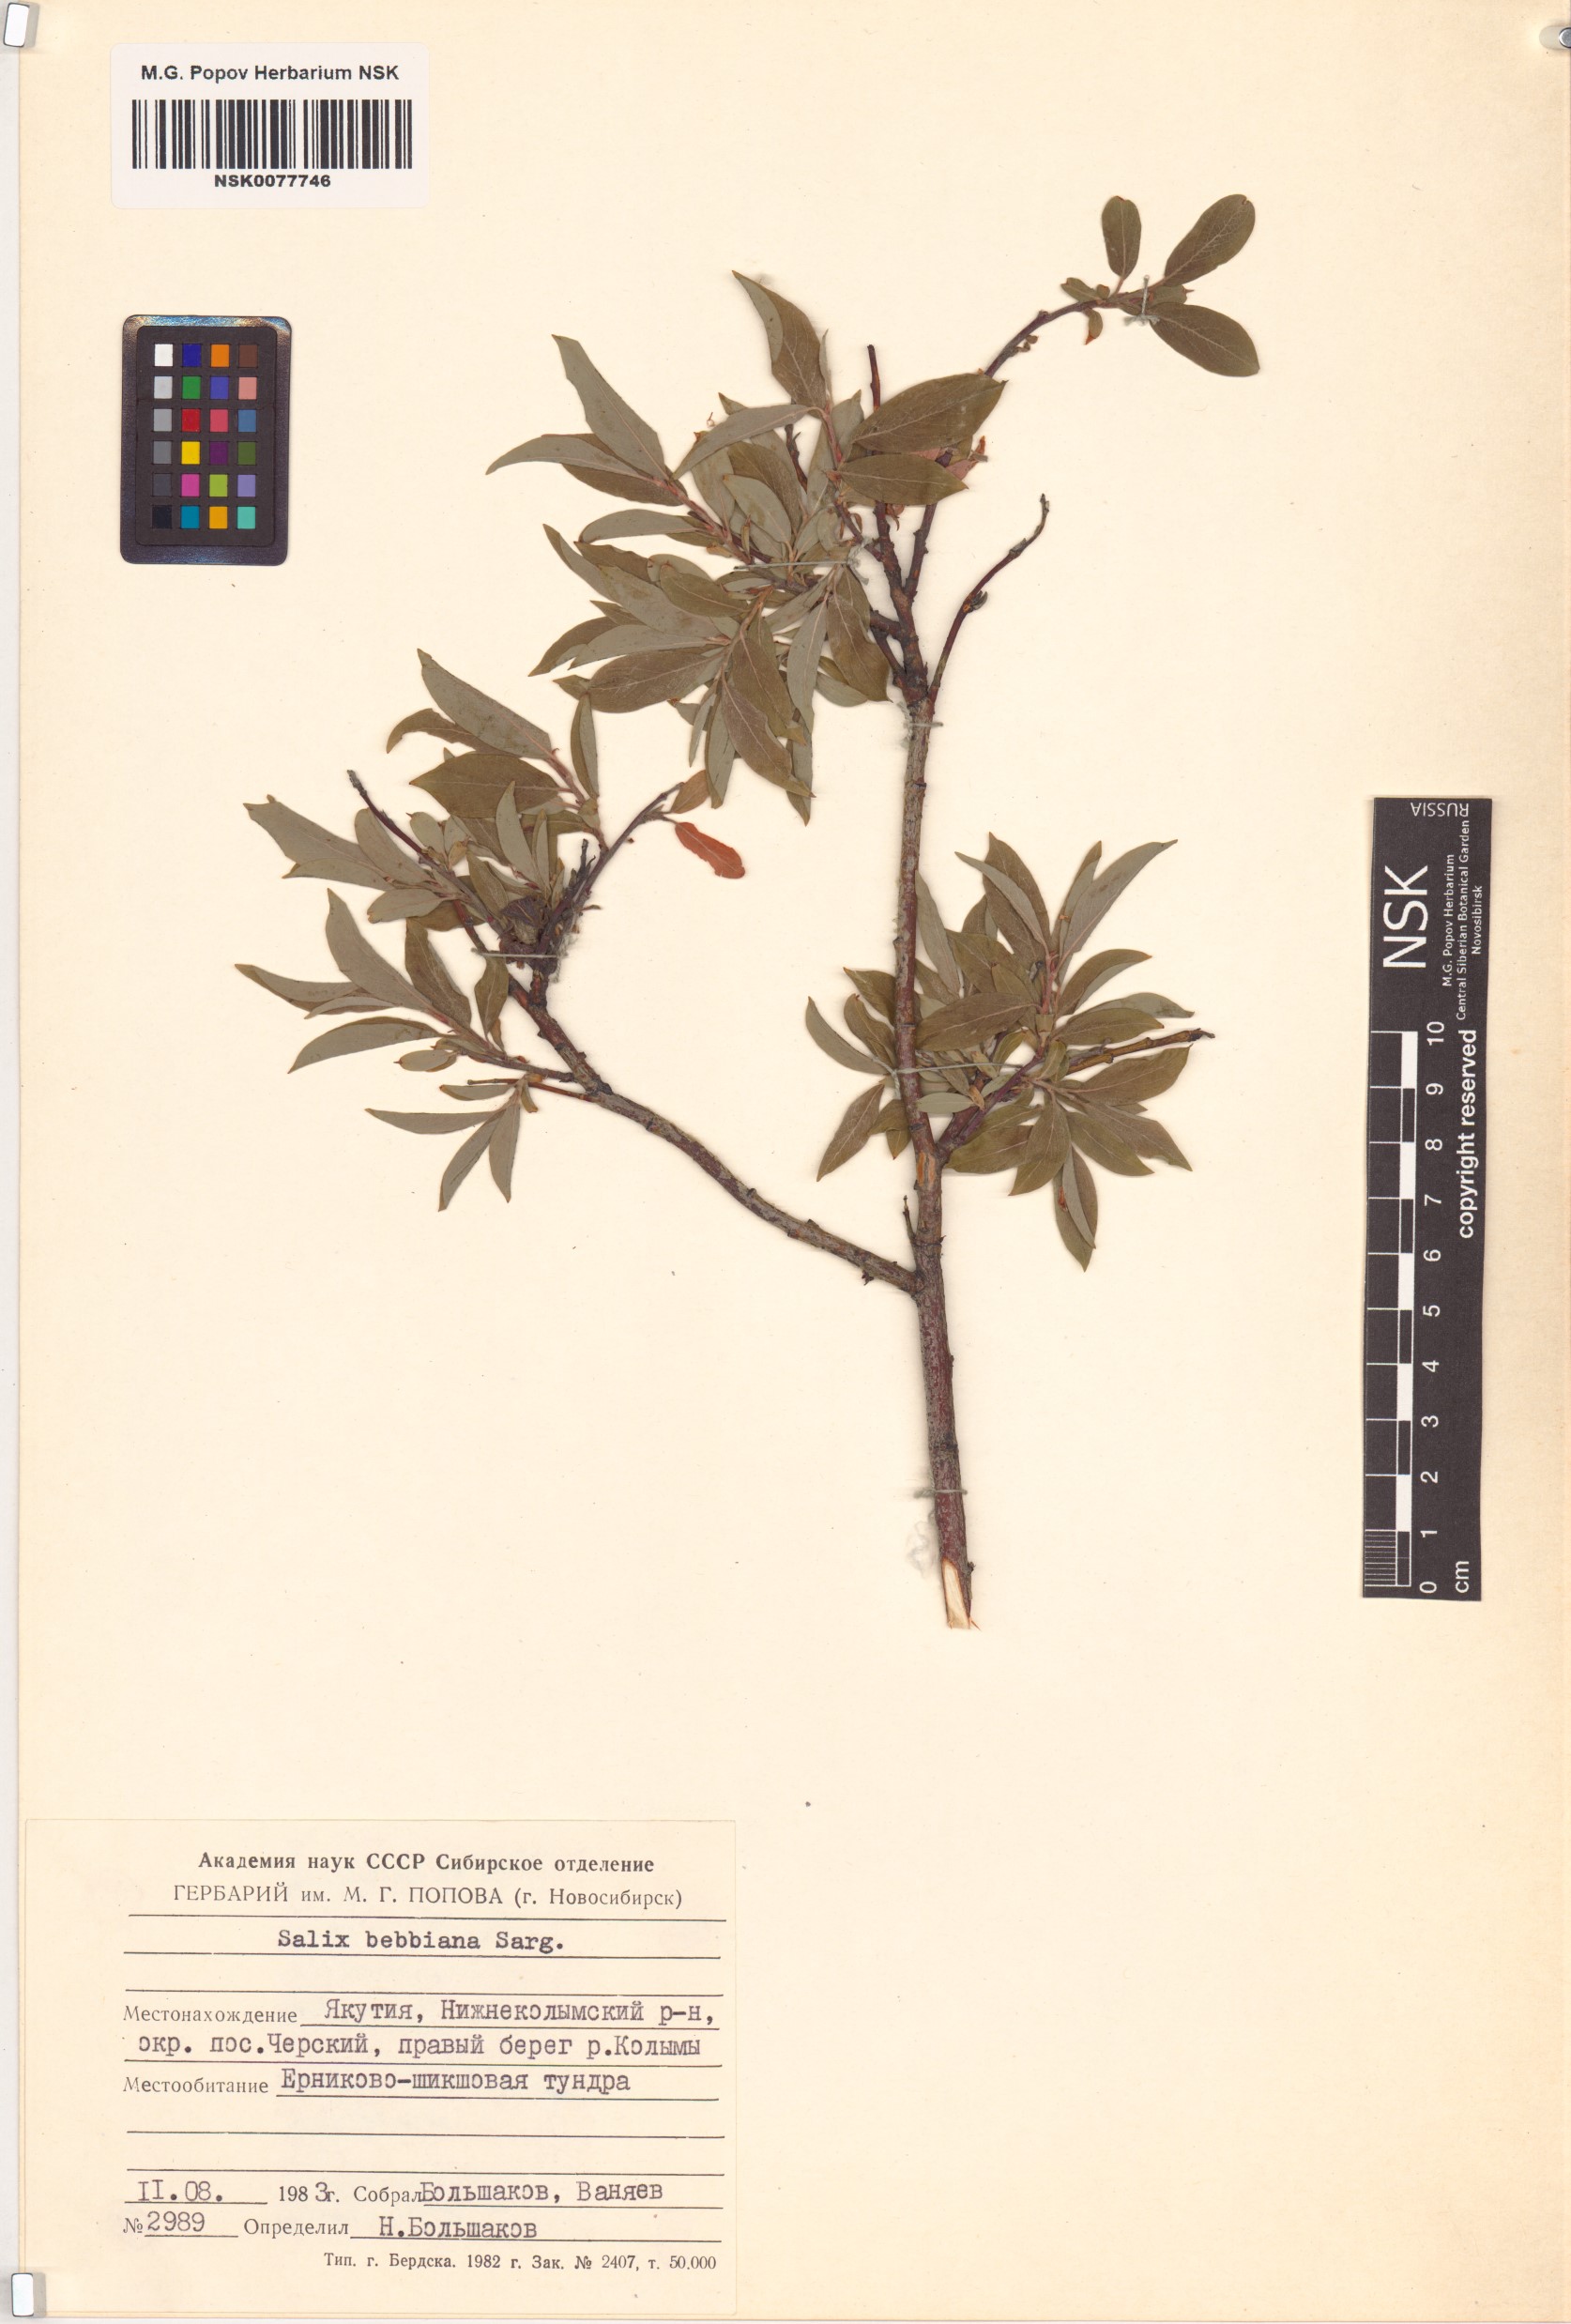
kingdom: Plantae
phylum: Tracheophyta
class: Magnoliopsida
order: Malpighiales
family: Salicaceae
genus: Salix
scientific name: Salix bebbiana
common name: Bebb's willow
